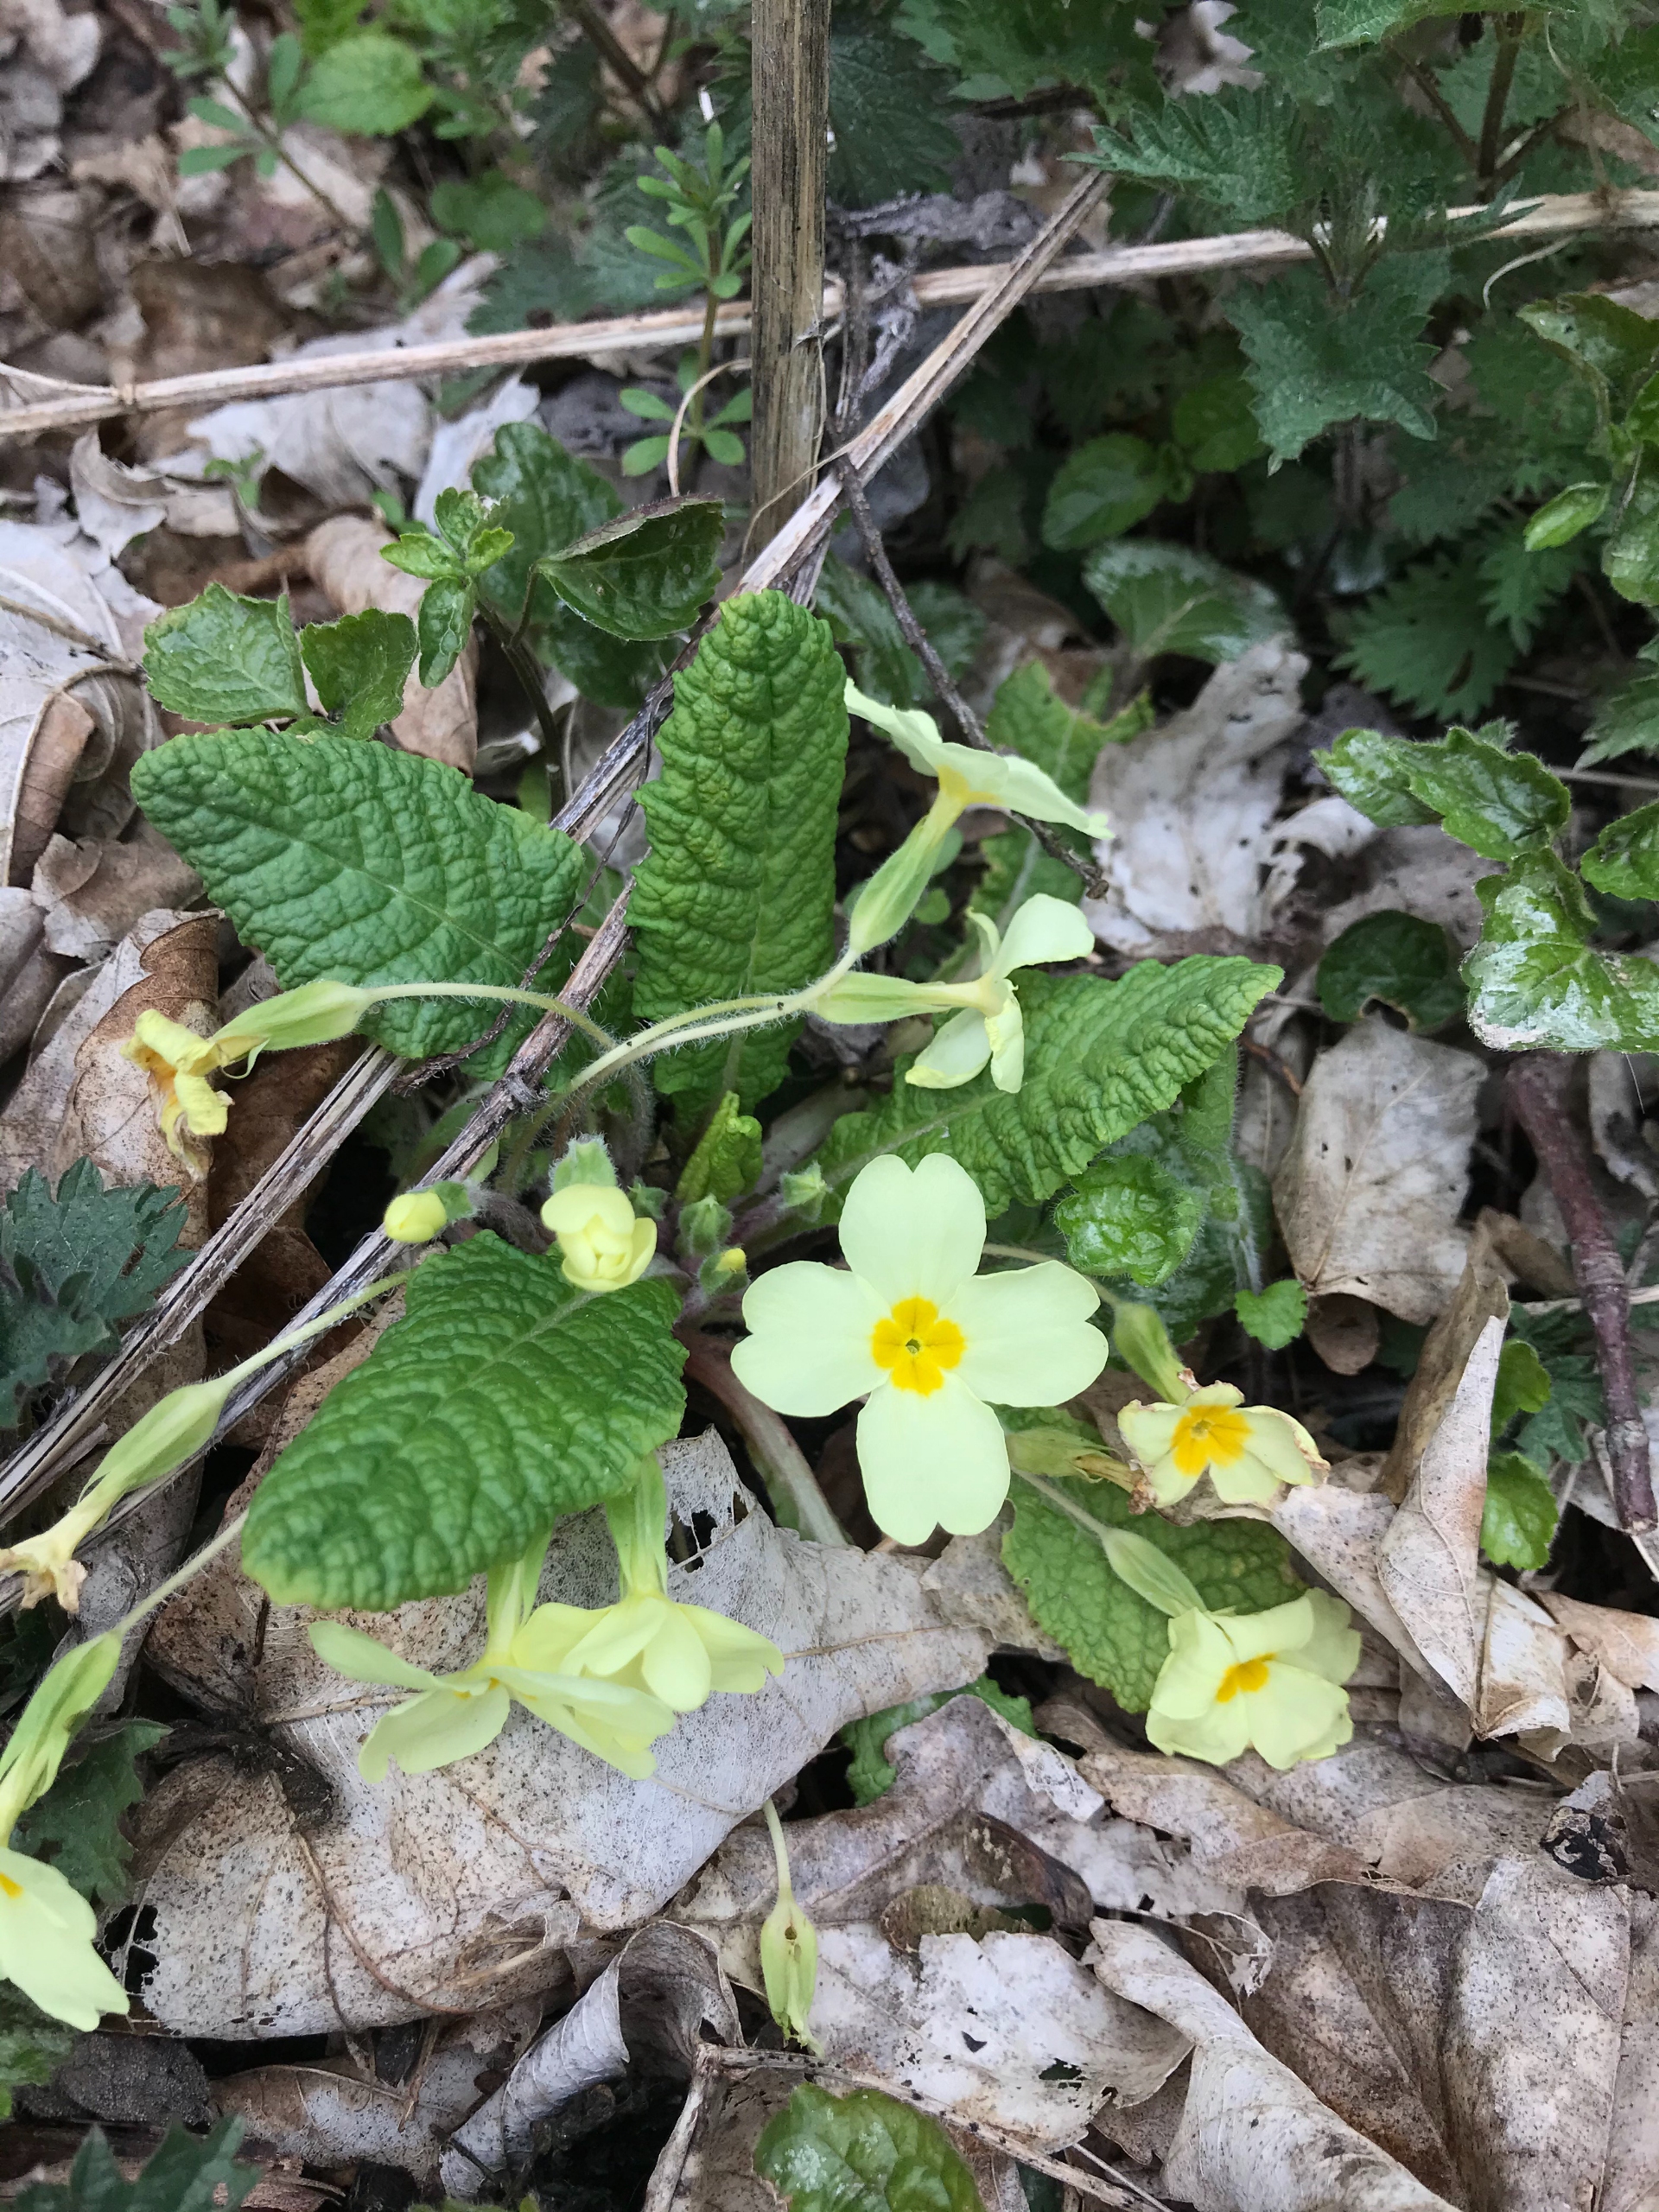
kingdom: Plantae
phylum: Tracheophyta
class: Magnoliopsida
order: Ericales
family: Primulaceae
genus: Primula
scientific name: Primula vulgaris
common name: Storblomstret kodriver
